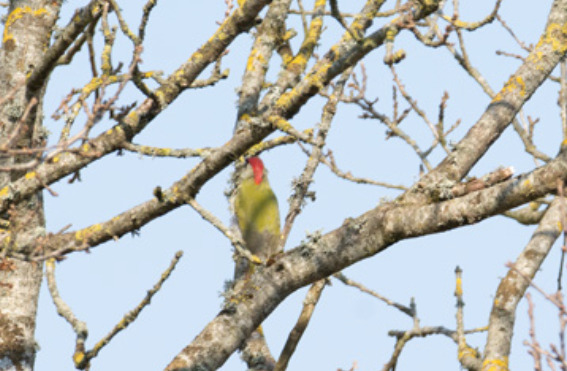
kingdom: Animalia
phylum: Chordata
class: Aves
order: Piciformes
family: Picidae
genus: Picus
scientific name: Picus viridis
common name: Grønspætte
